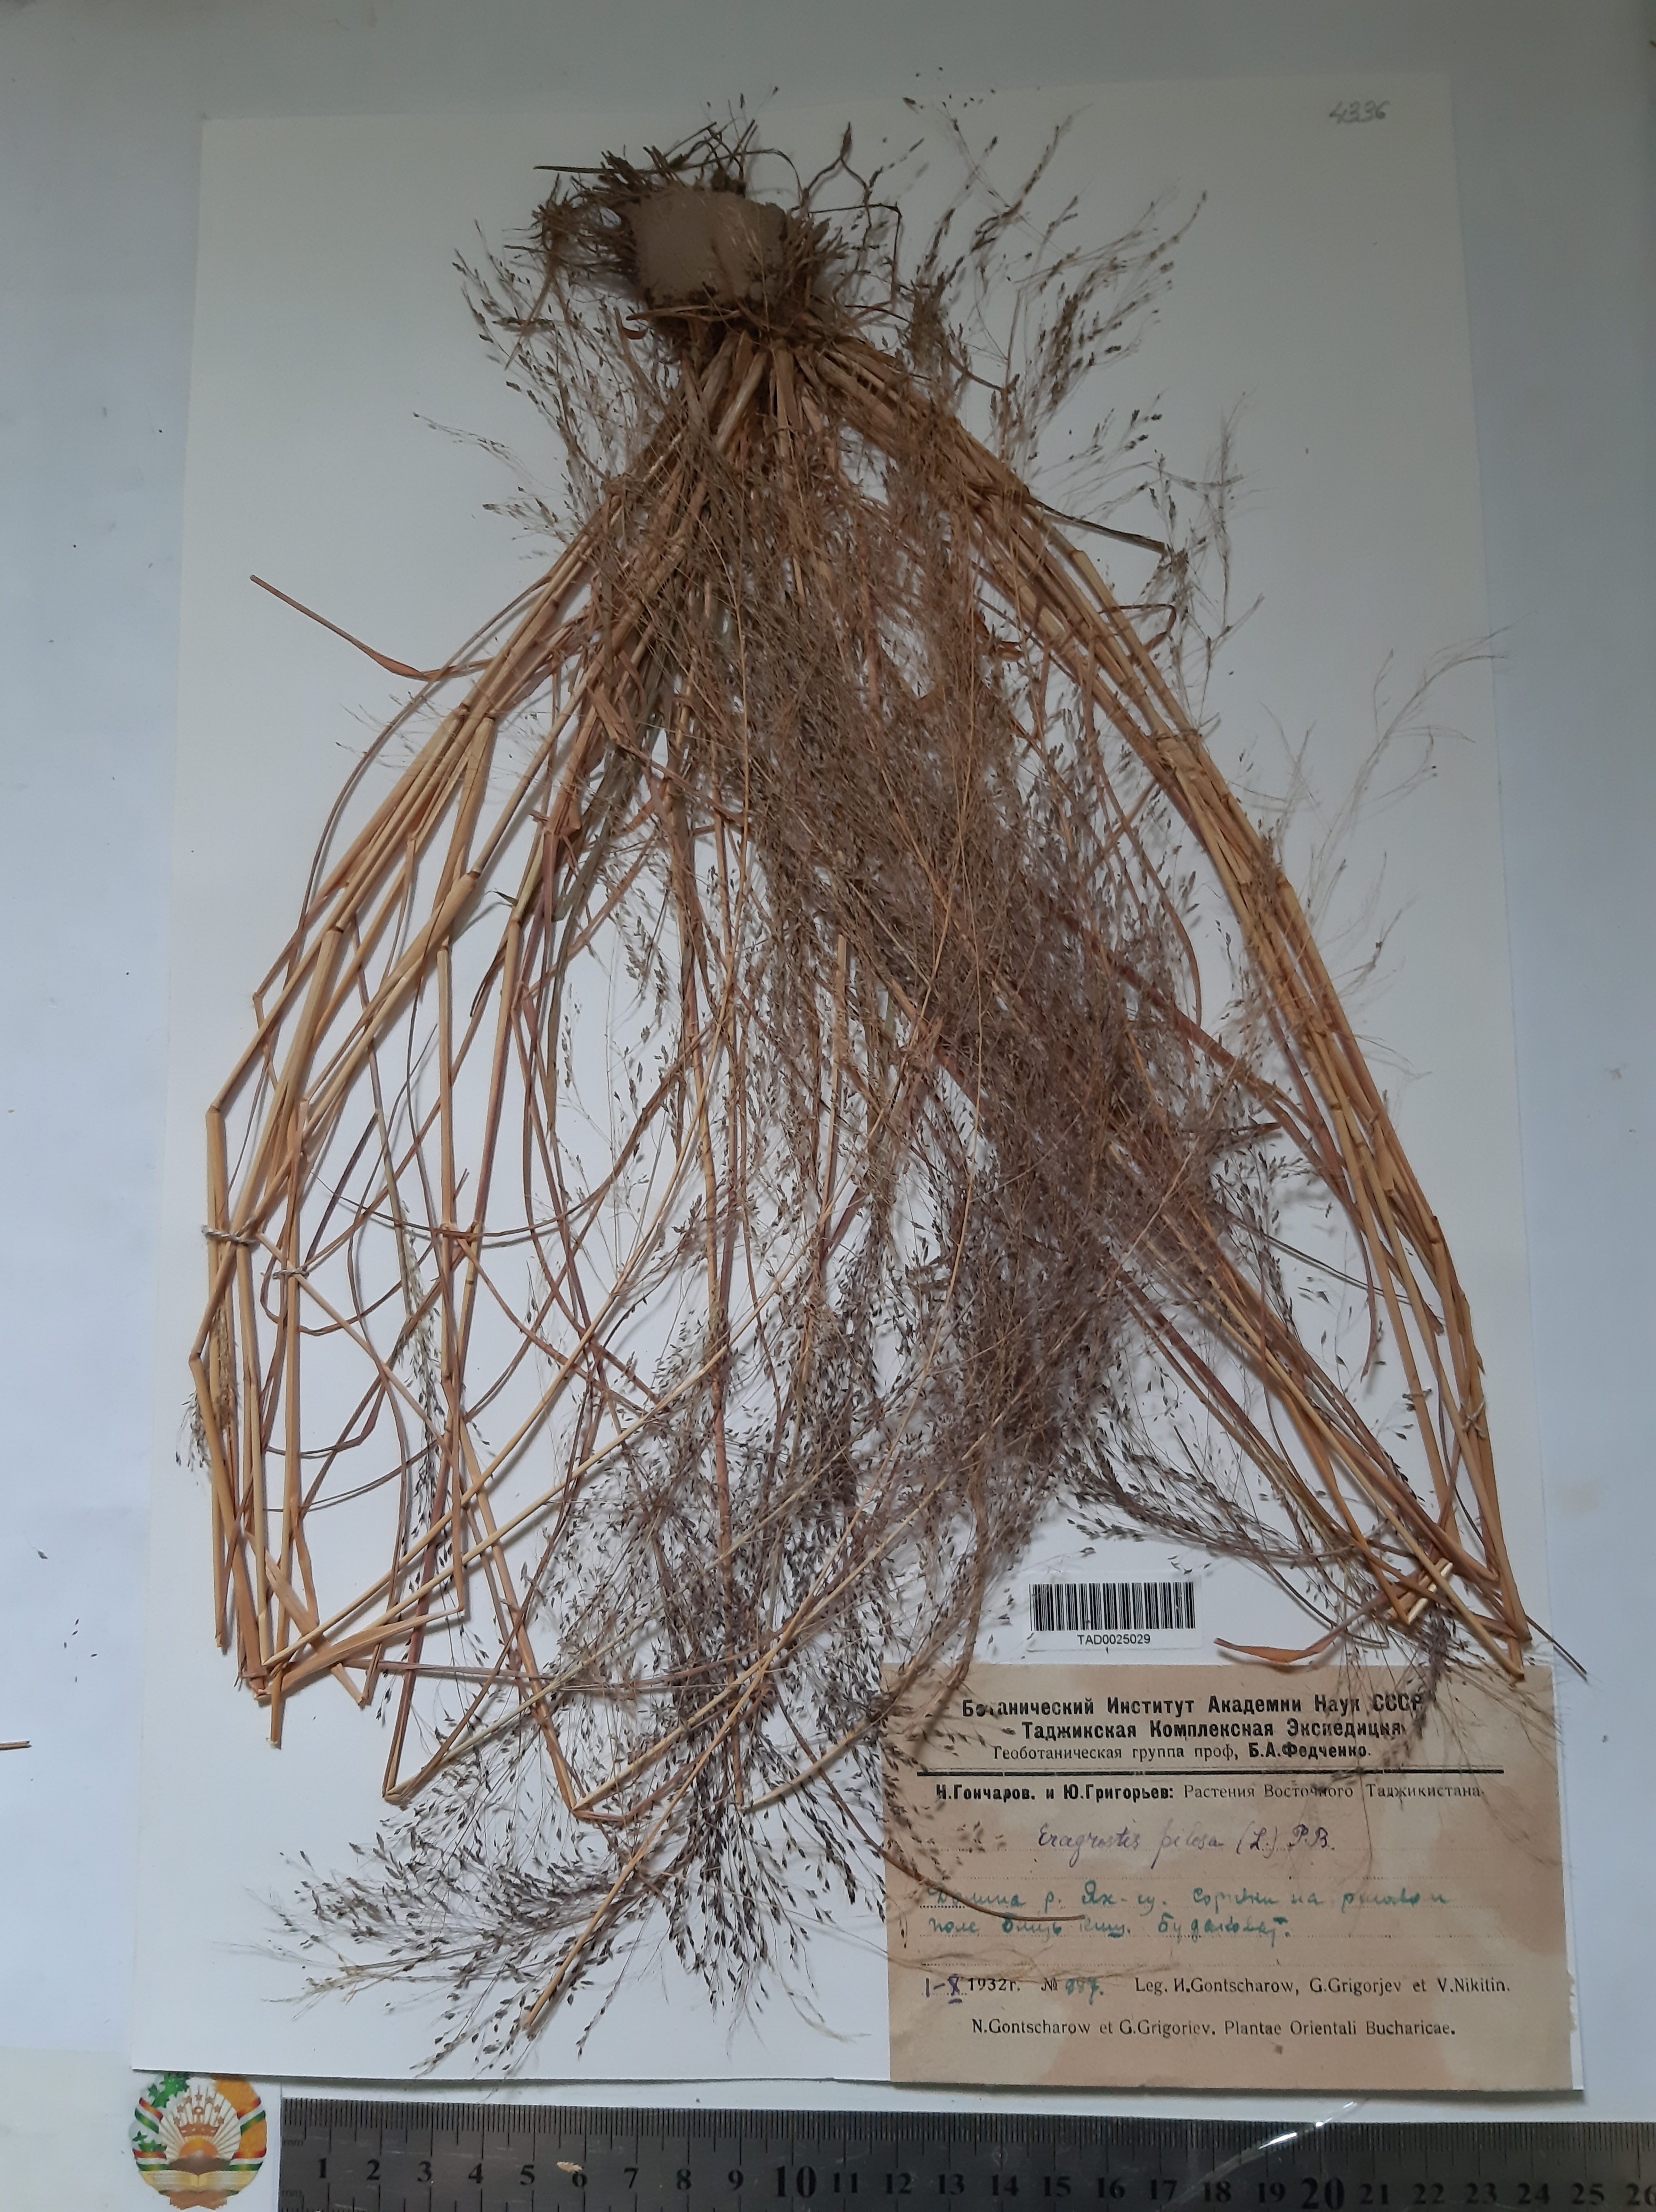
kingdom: Plantae
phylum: Tracheophyta
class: Liliopsida
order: Poales
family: Poaceae
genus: Eragrostis
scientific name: Eragrostis pilosa
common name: Indian lovegrass
